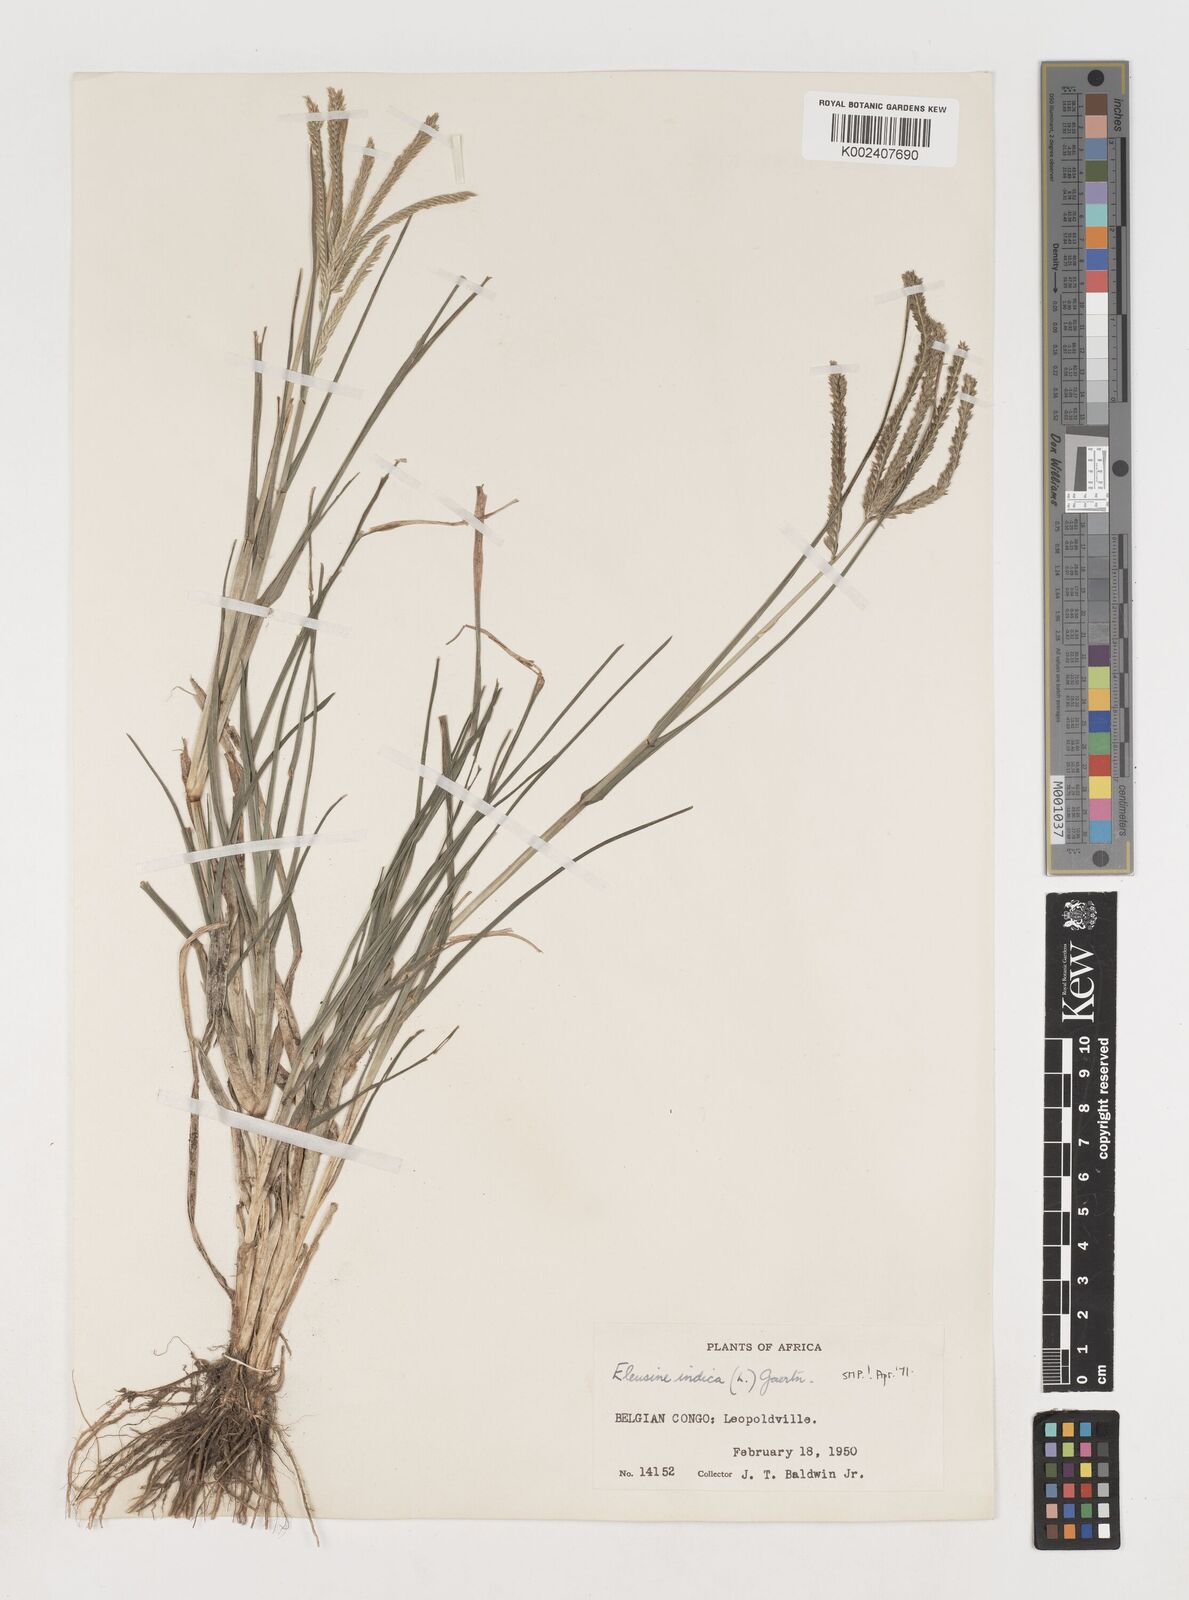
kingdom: Plantae
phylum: Tracheophyta
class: Liliopsida
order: Poales
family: Poaceae
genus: Eleusine
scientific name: Eleusine indica
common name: Yard-grass
